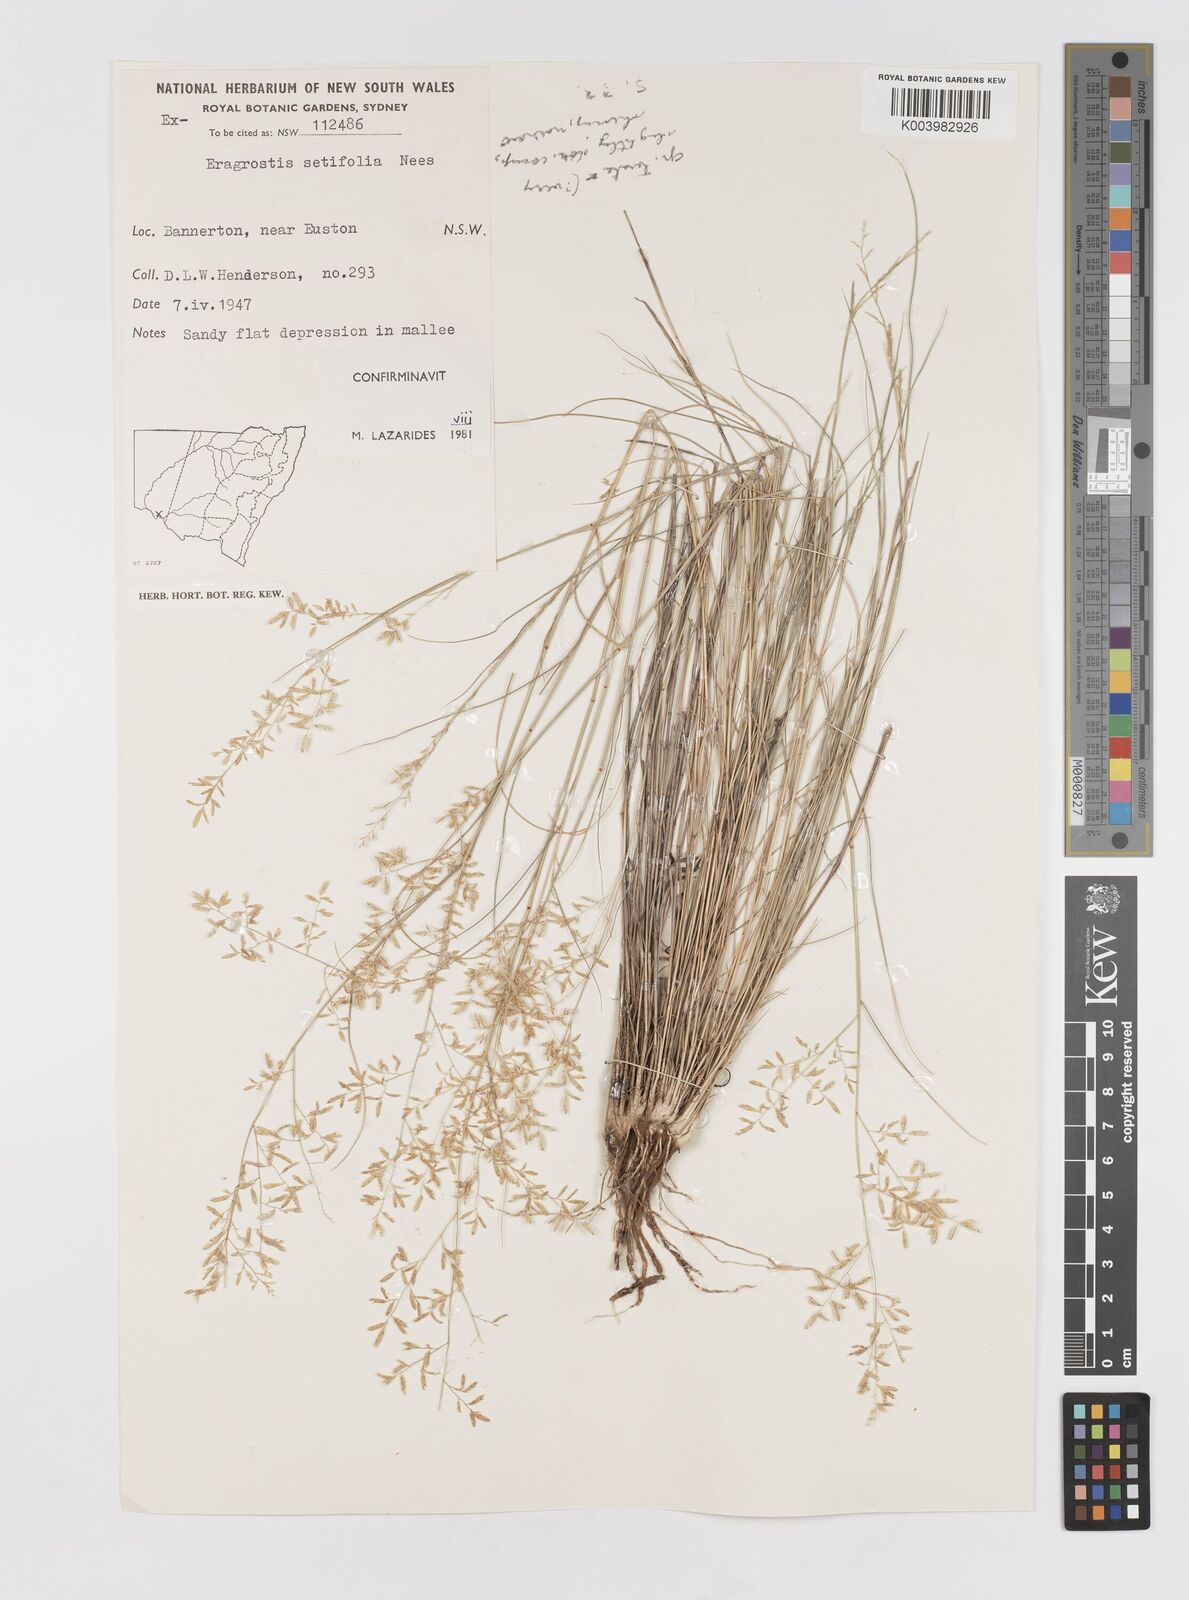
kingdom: Plantae
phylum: Tracheophyta
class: Liliopsida
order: Poales
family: Poaceae
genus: Eragrostis
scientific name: Eragrostis setifolia
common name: Bristleleaf lovegrass
